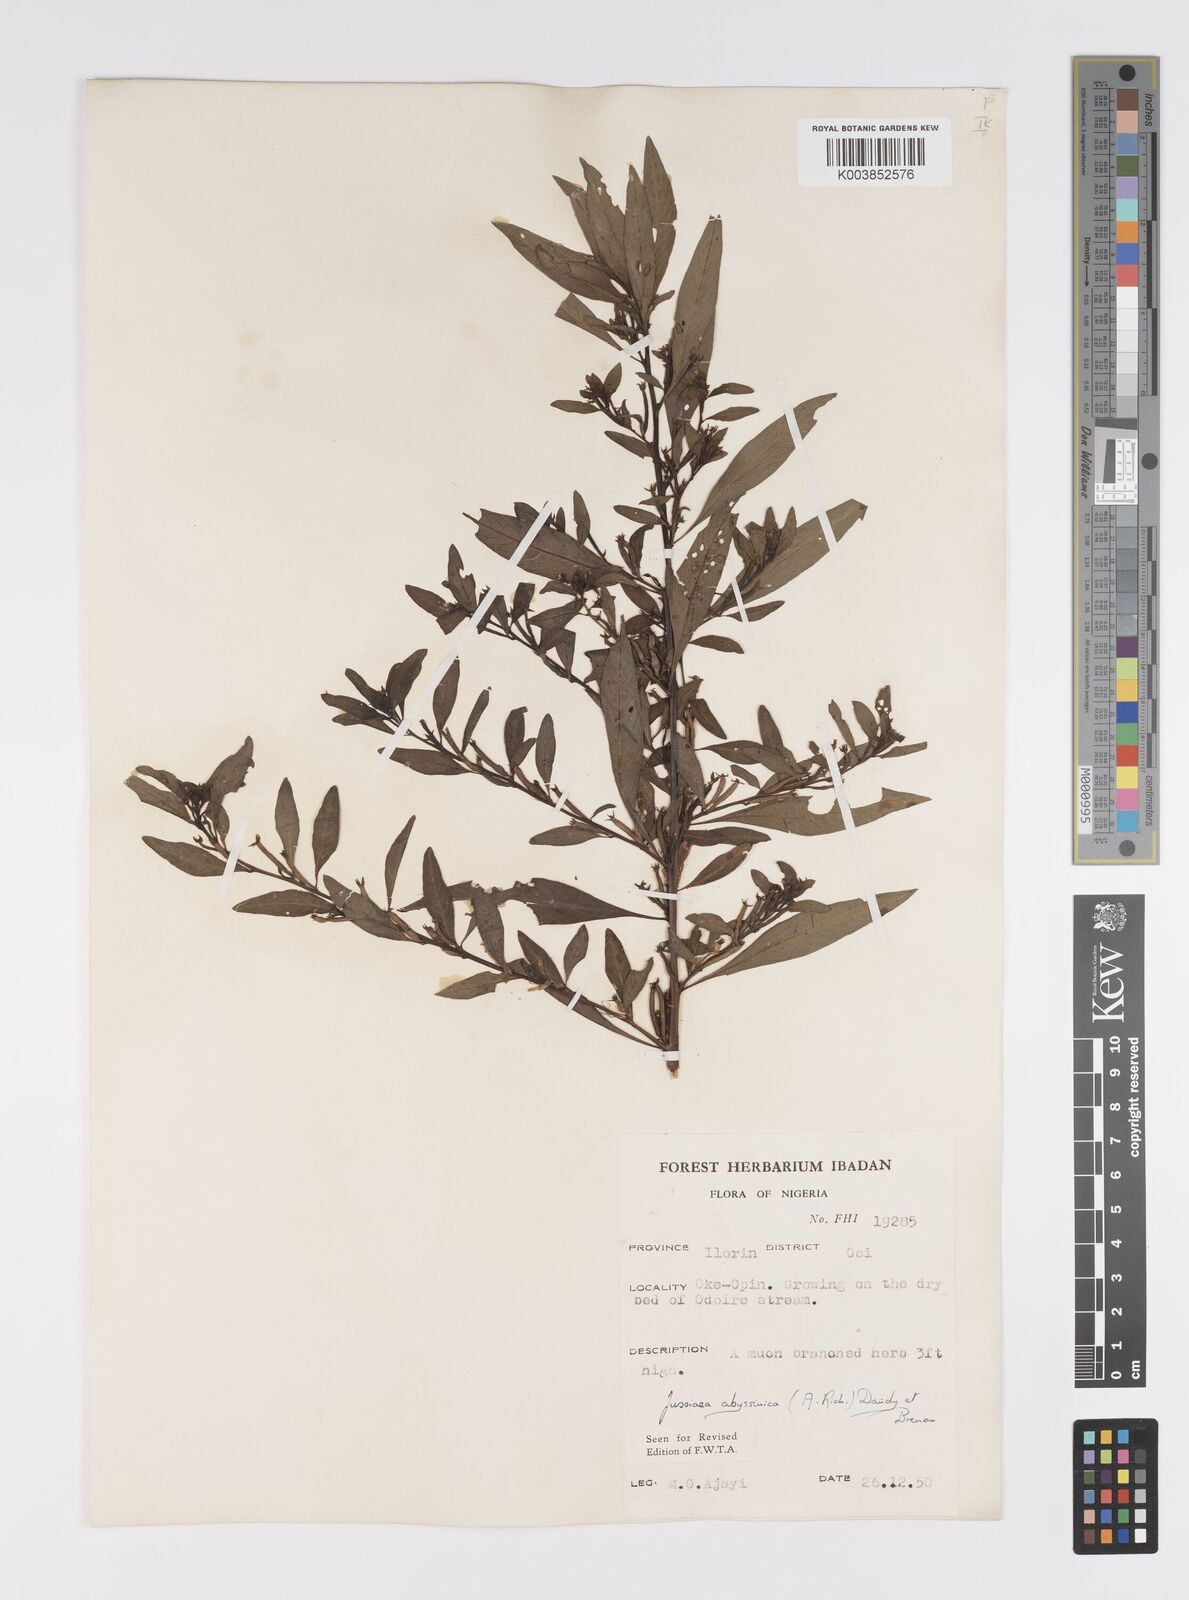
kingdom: Plantae
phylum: Tracheophyta
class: Magnoliopsida
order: Myrtales
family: Onagraceae
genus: Ludwigia
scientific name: Ludwigia abyssinica
